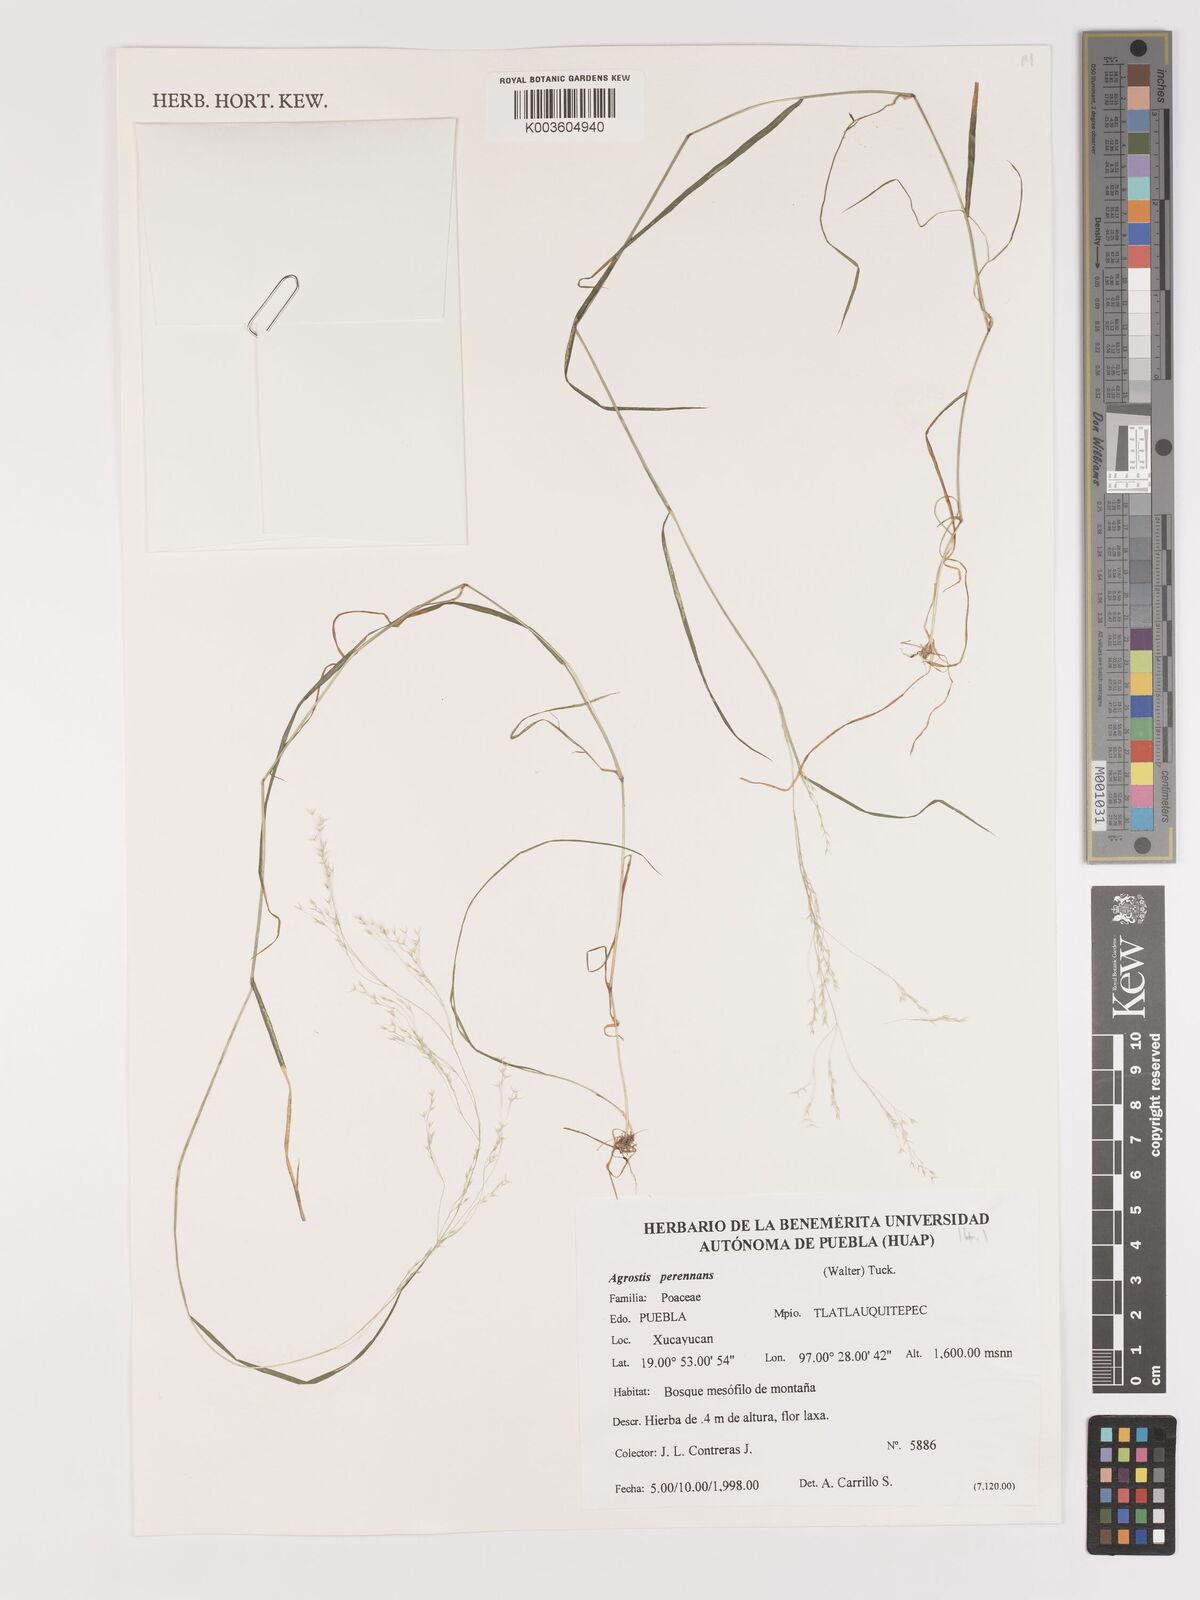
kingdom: Plantae
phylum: Tracheophyta
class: Liliopsida
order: Poales
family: Poaceae
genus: Agrostis
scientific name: Agrostis perennans
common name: Autumn bent
